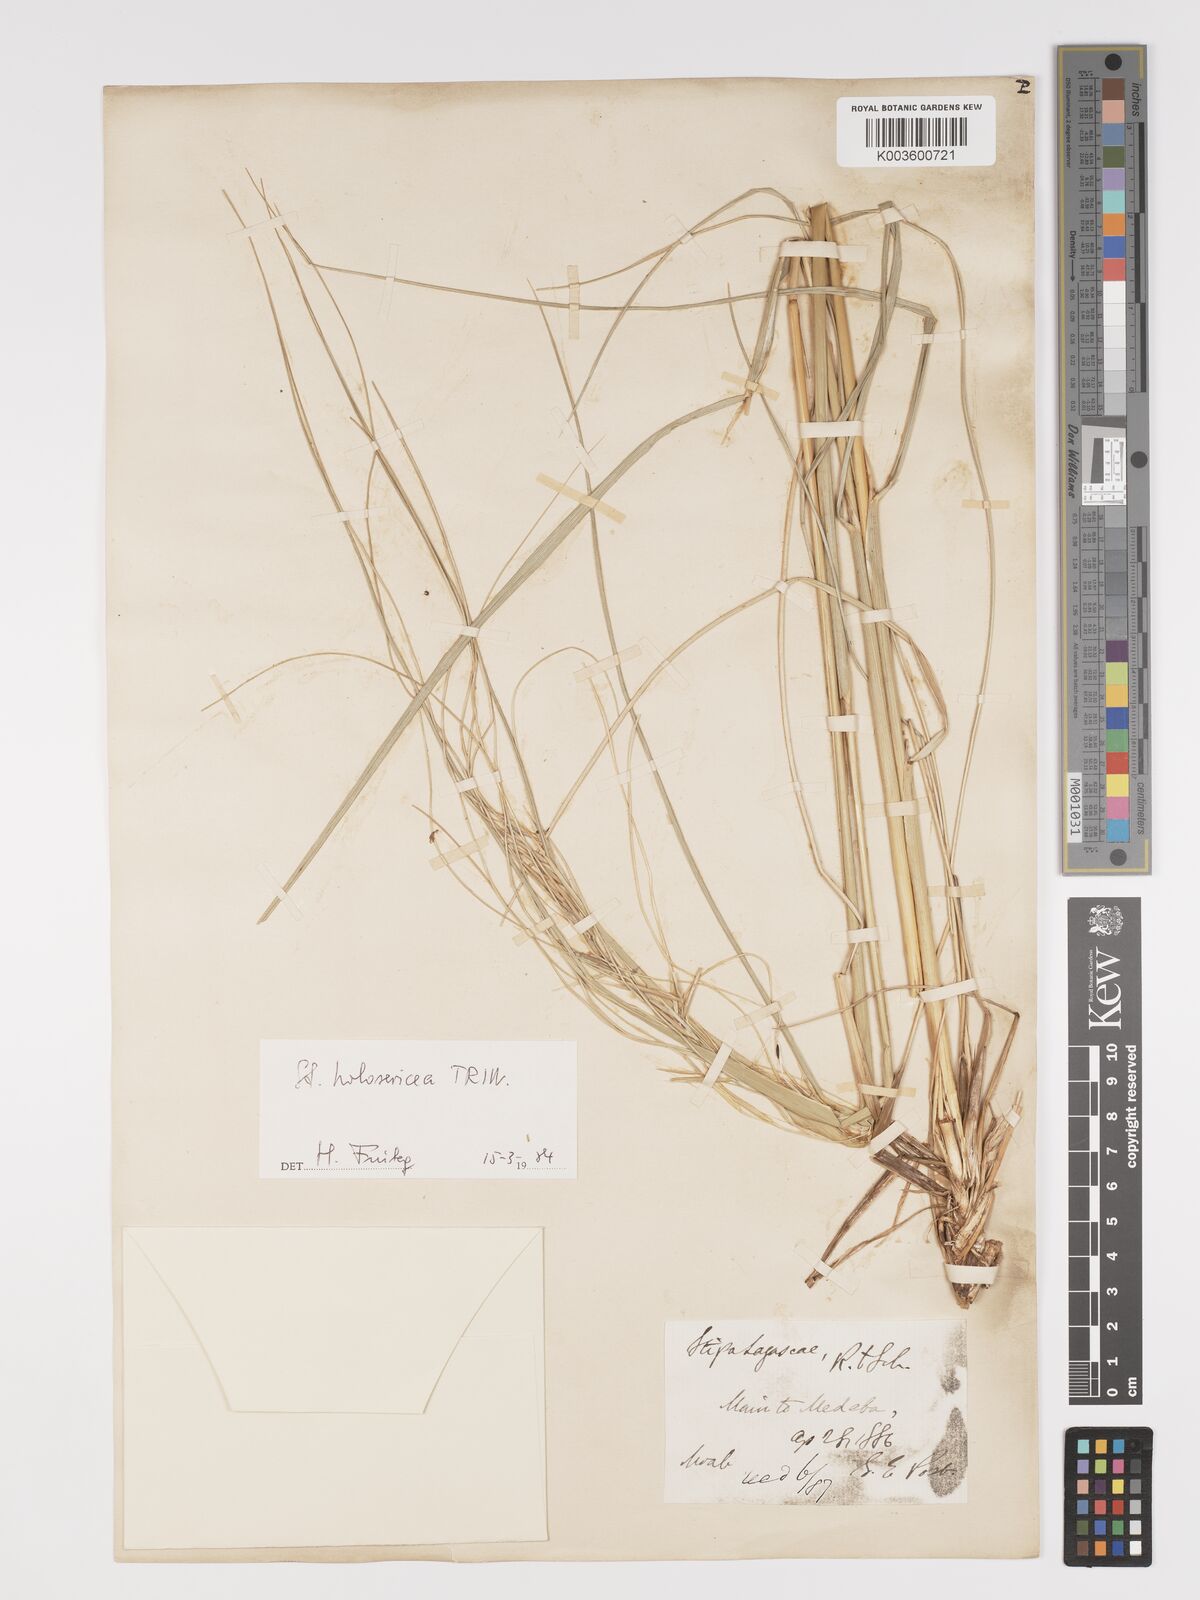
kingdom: Plantae
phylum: Tracheophyta
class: Liliopsida
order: Poales
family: Poaceae
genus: Stipa
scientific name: Stipa holosericea
